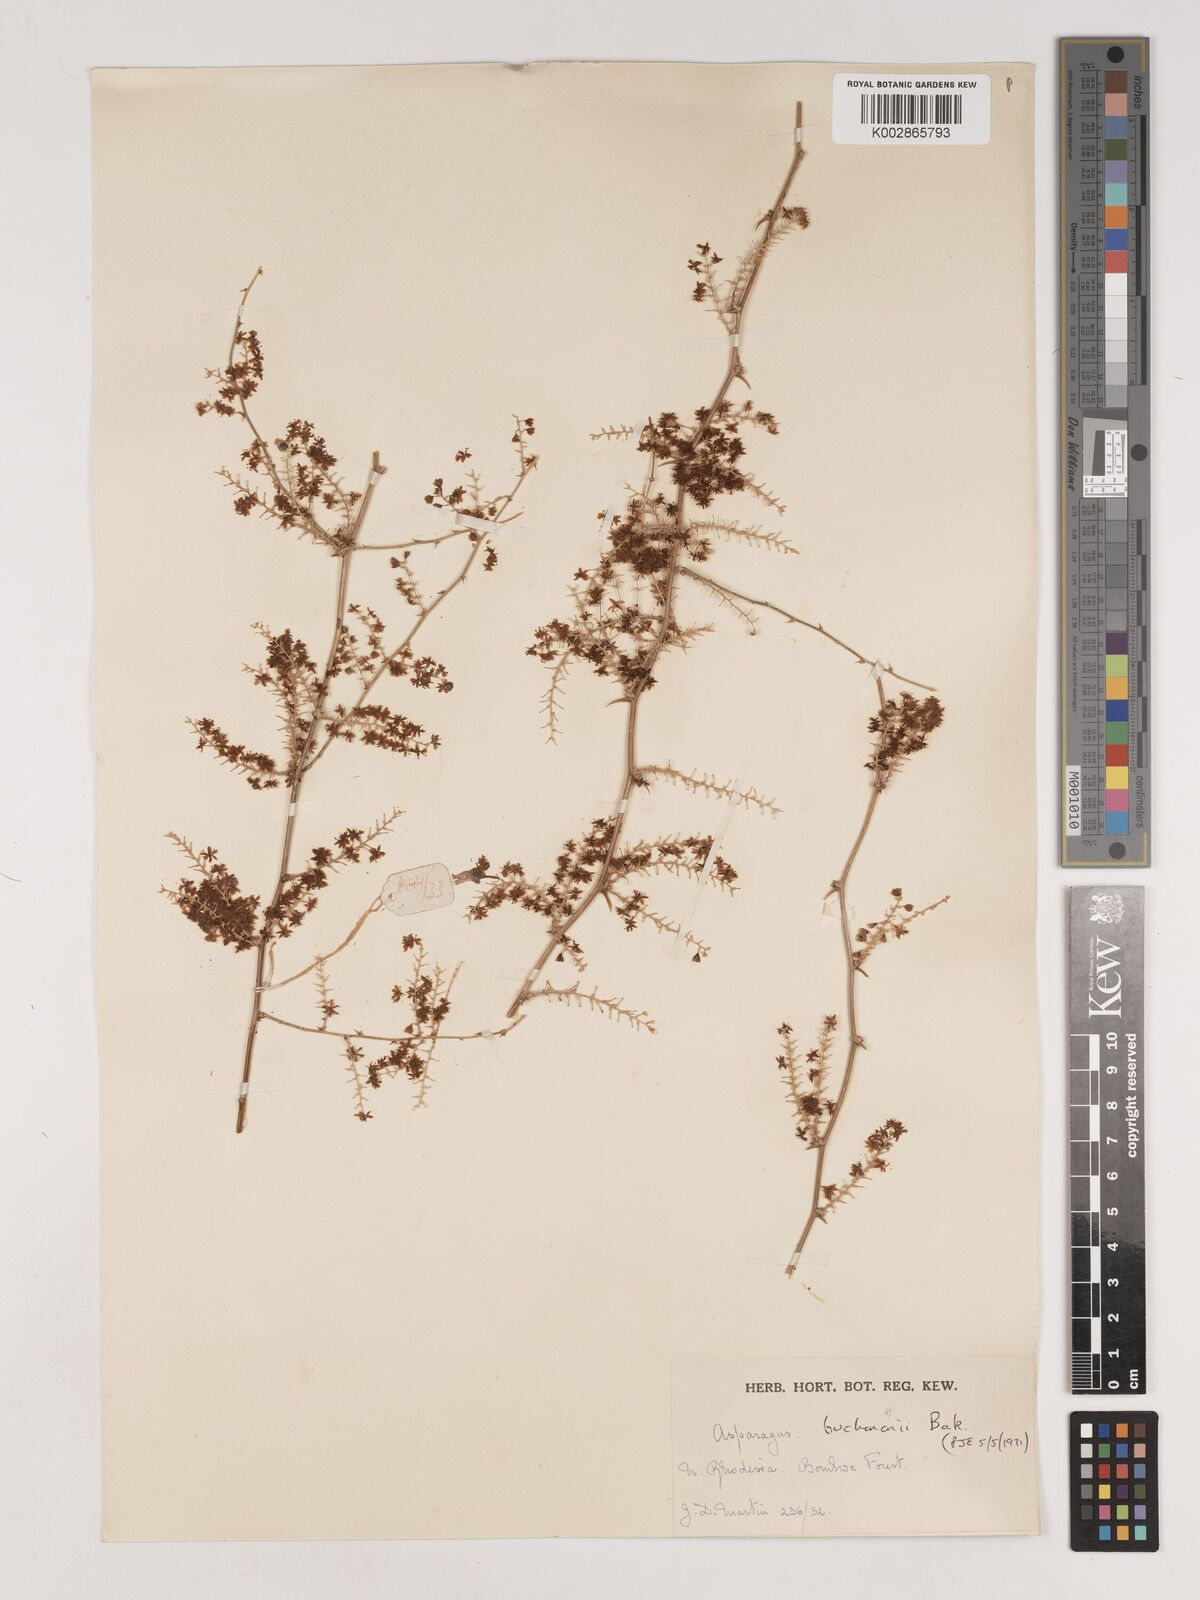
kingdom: Plantae
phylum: Tracheophyta
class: Liliopsida
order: Asparagales
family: Asparagaceae
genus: Asparagus
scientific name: Asparagus buchananii
